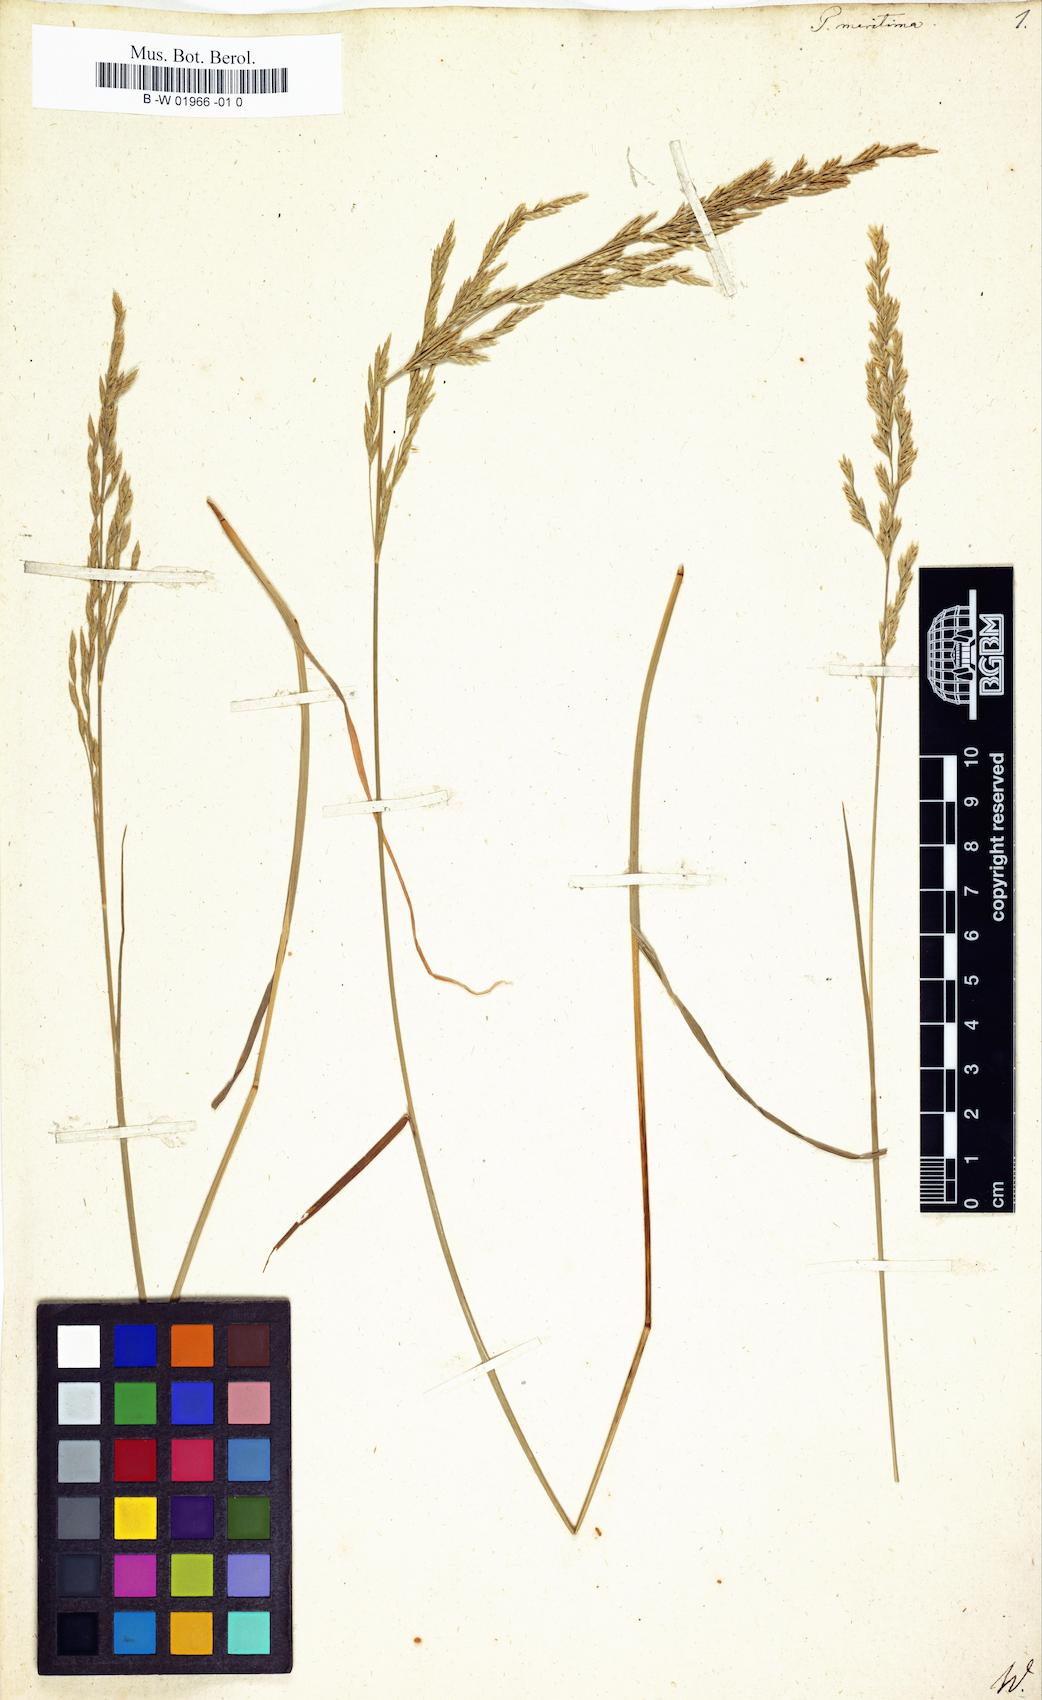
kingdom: Plantae
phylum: Tracheophyta
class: Liliopsida
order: Poales
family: Poaceae
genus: Poa
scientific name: Poa maritima
